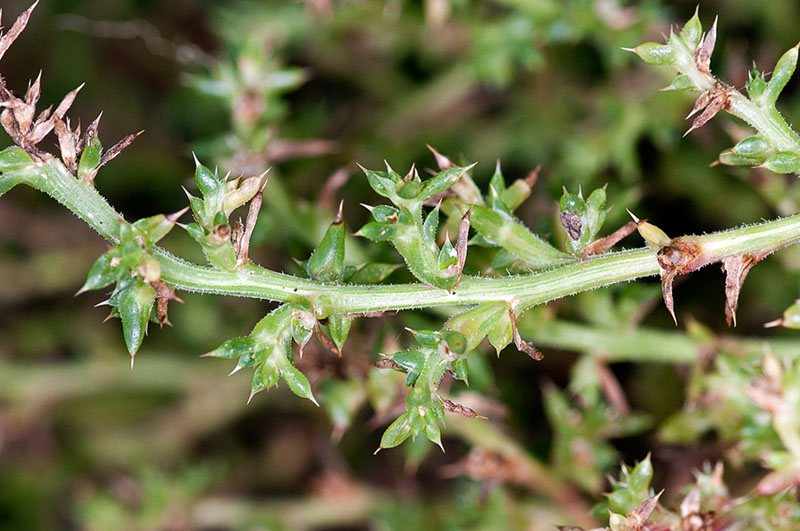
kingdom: Plantae
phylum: Tracheophyta
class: Magnoliopsida
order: Caryophyllales
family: Amaranthaceae
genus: Salsola
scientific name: Salsola kali
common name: Saltwort
